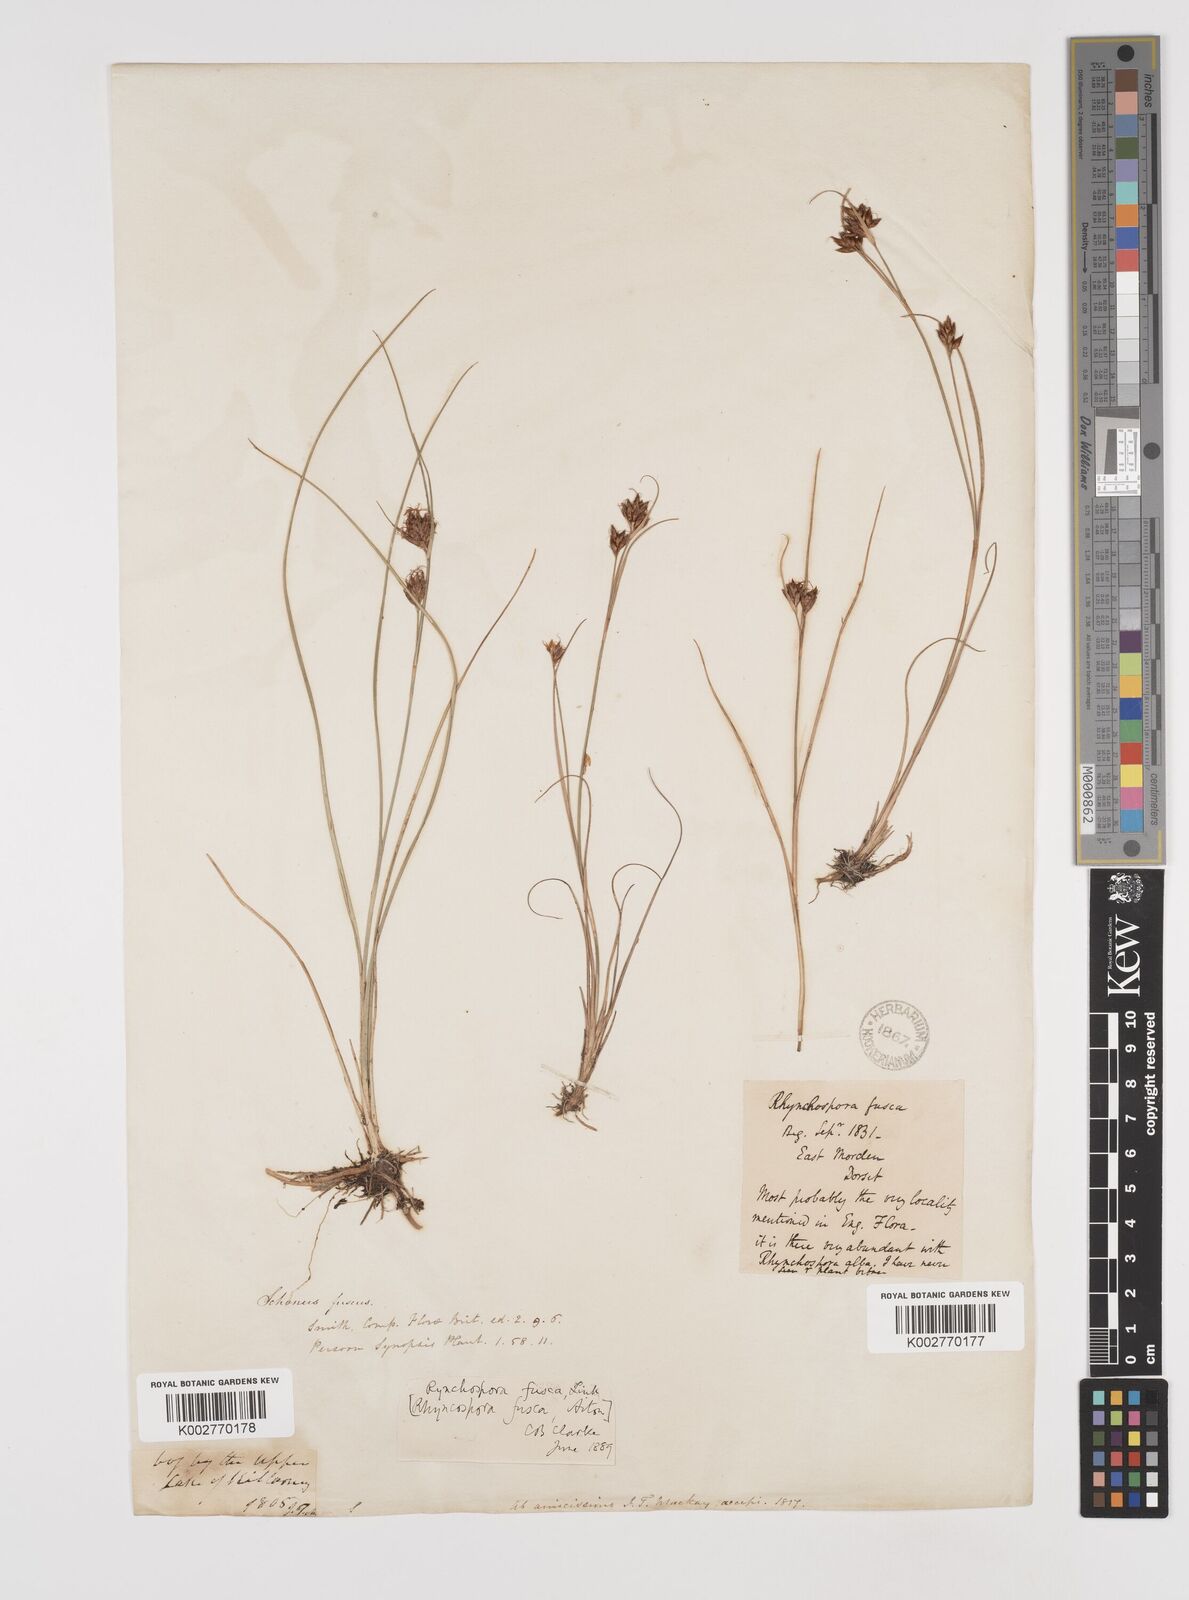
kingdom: Plantae
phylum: Tracheophyta
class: Liliopsida
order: Poales
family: Cyperaceae
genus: Rhynchospora
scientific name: Rhynchospora fusca
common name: Brown beak-sedge
